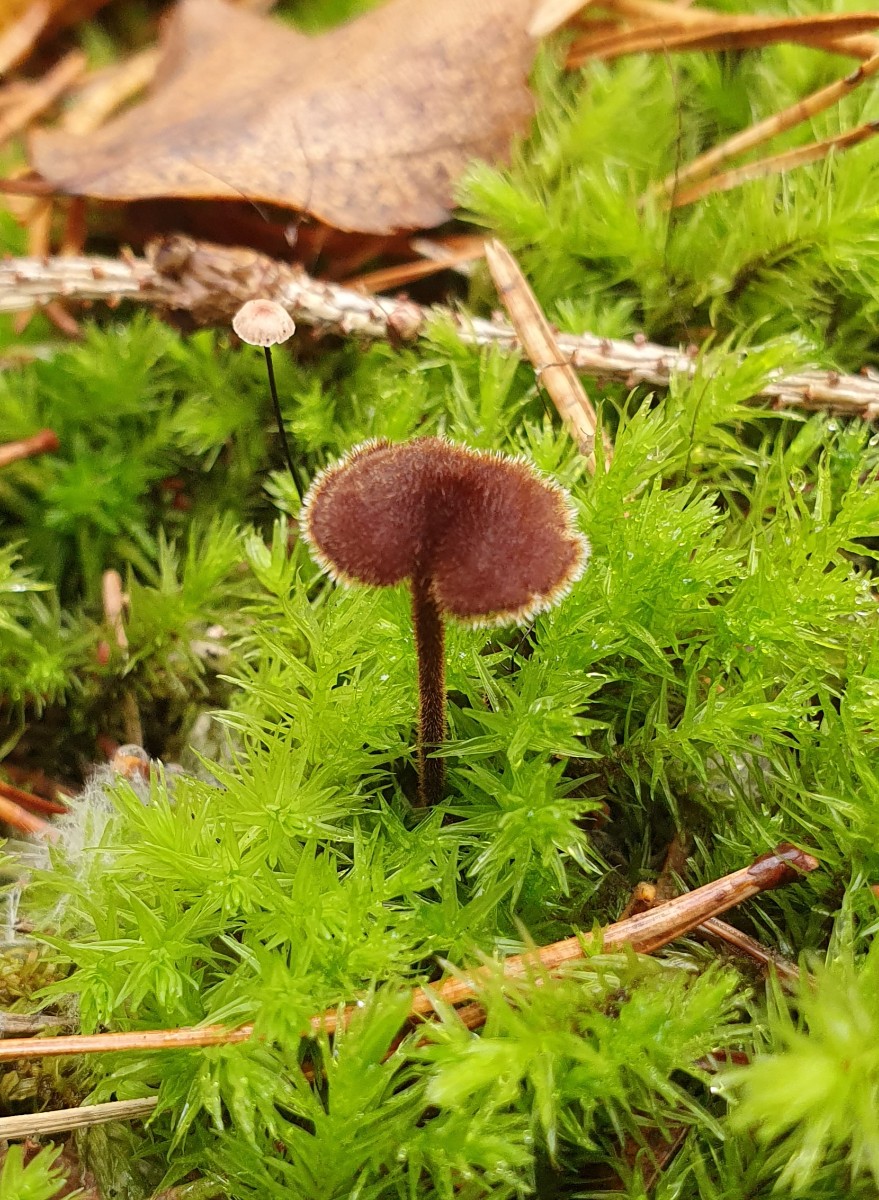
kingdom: Fungi
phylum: Basidiomycota
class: Agaricomycetes
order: Russulales
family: Auriscalpiaceae
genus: Auriscalpium
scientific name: Auriscalpium vulgare
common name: koglepigsvamp
